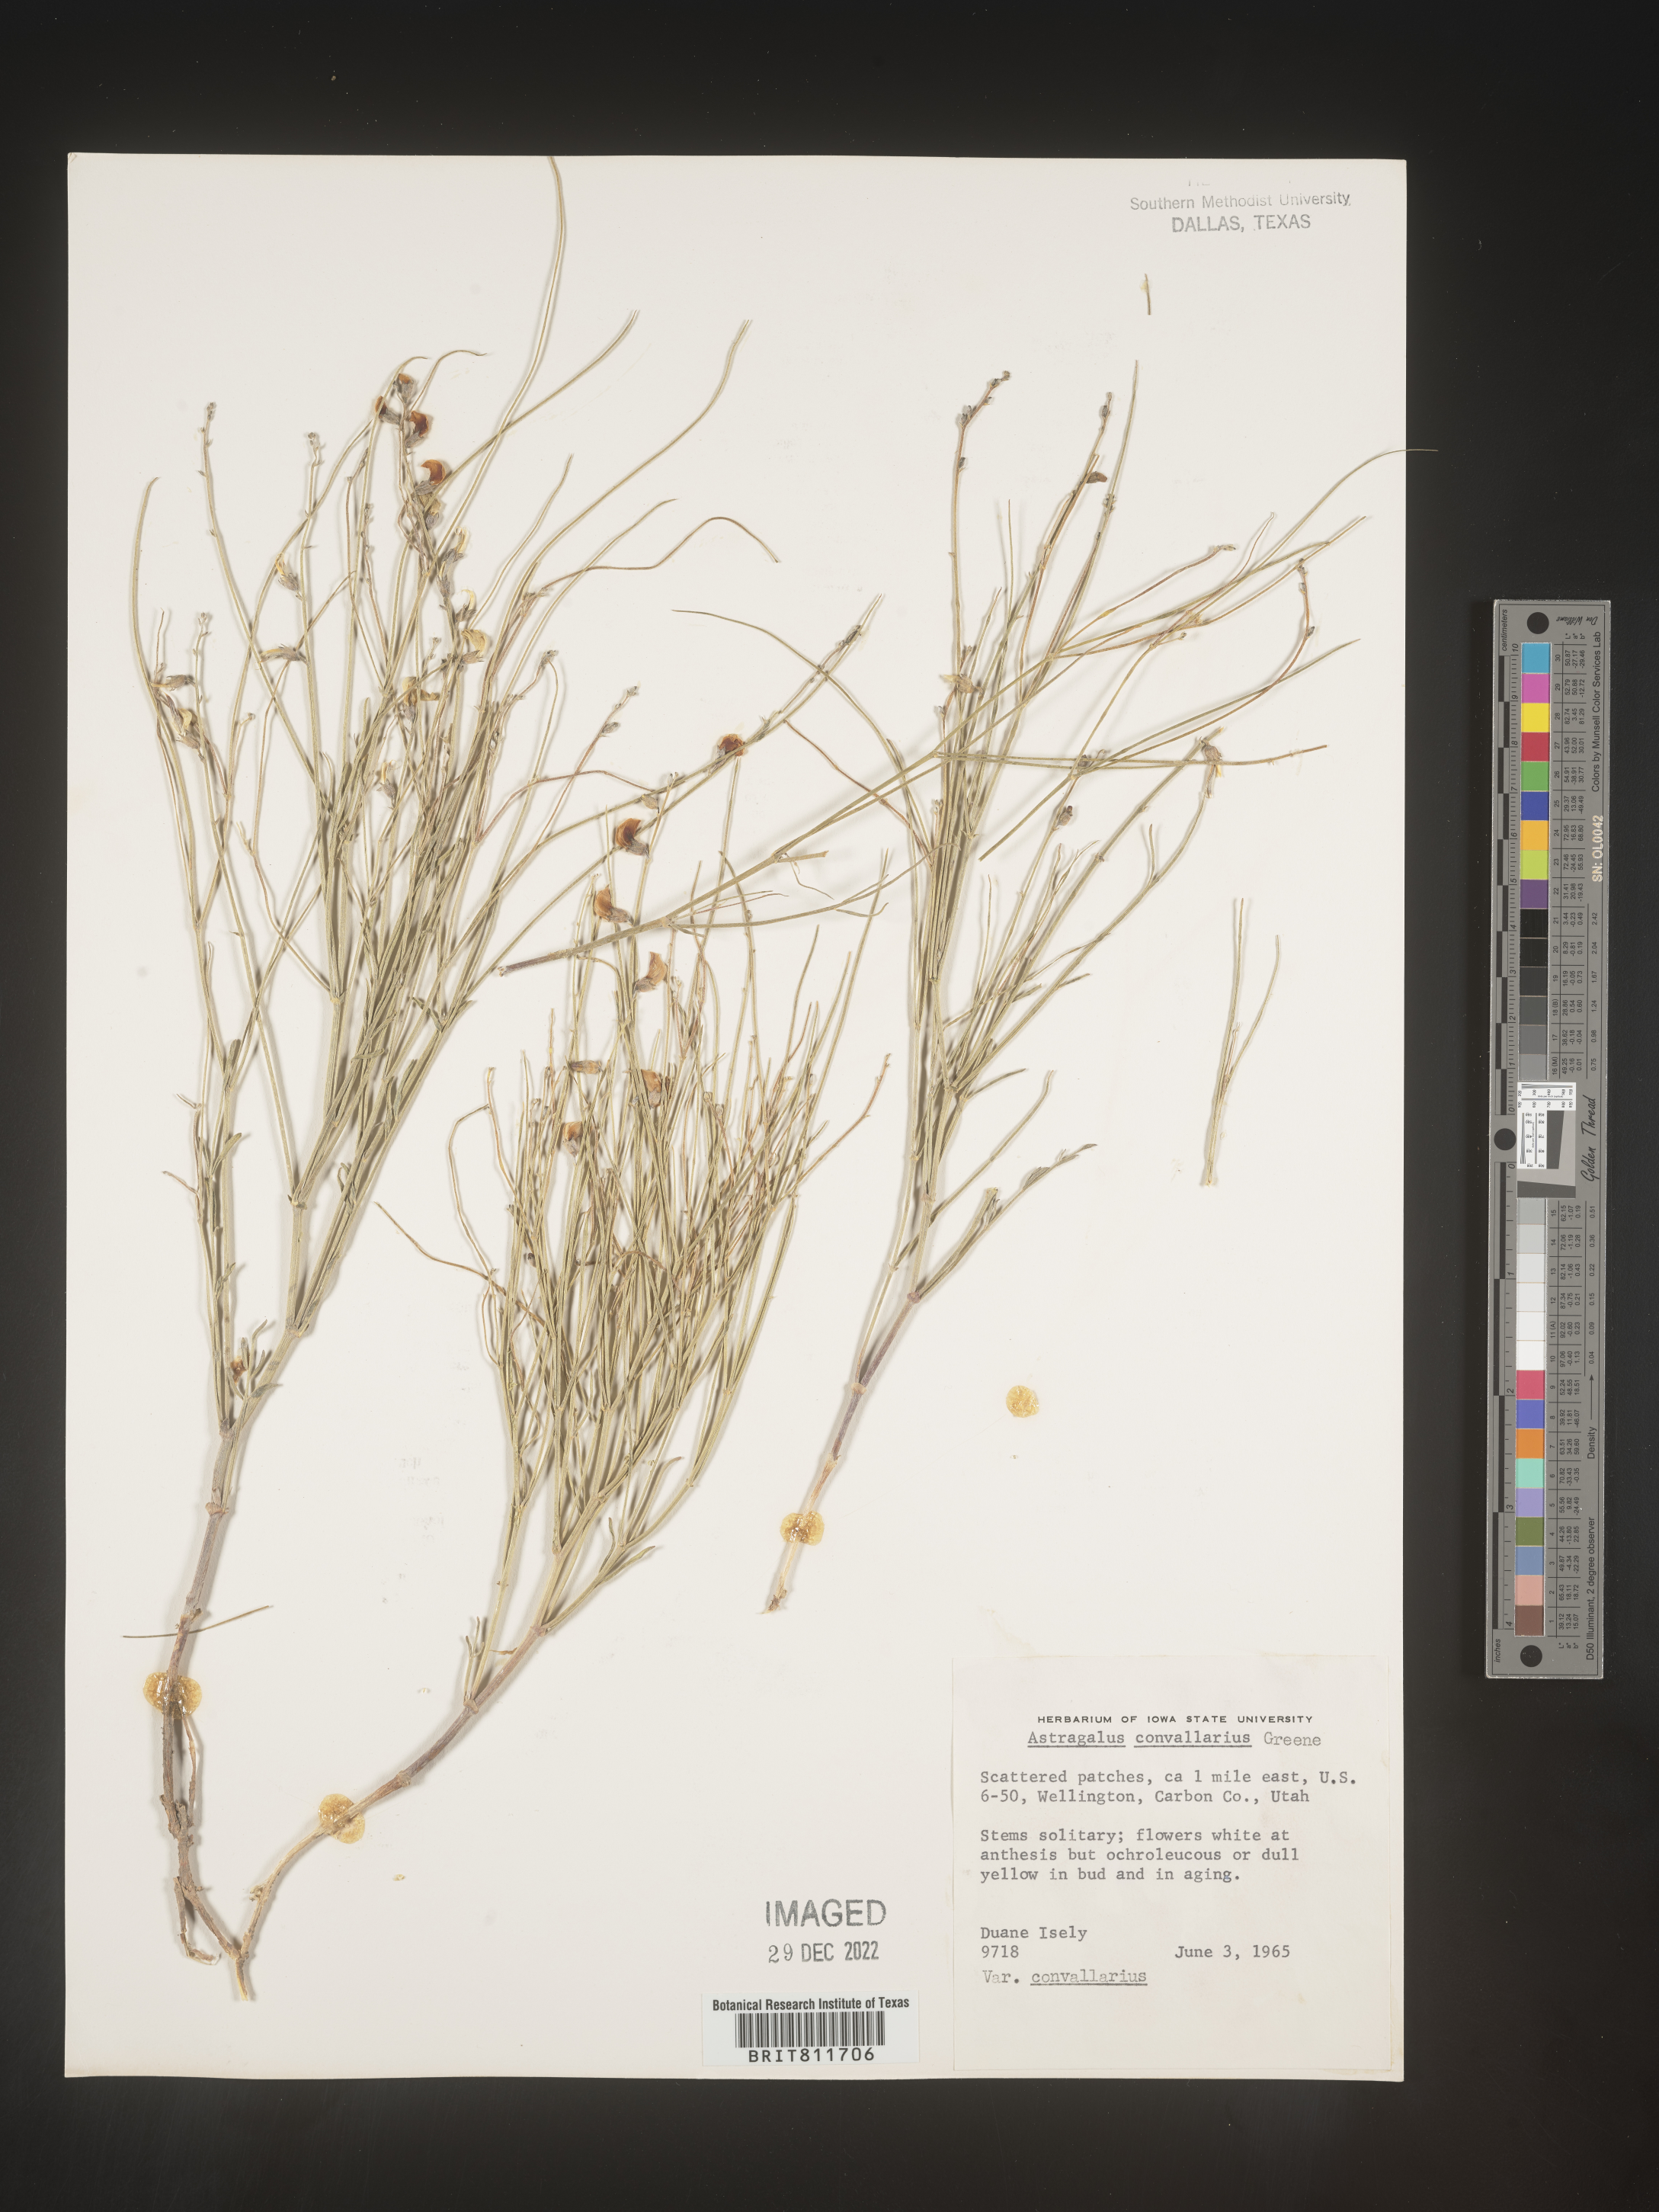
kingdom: Plantae
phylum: Tracheophyta
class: Magnoliopsida
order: Fabales
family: Fabaceae
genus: Astragalus
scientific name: Astragalus convallarius
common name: Lesser rushy milk-vetch
